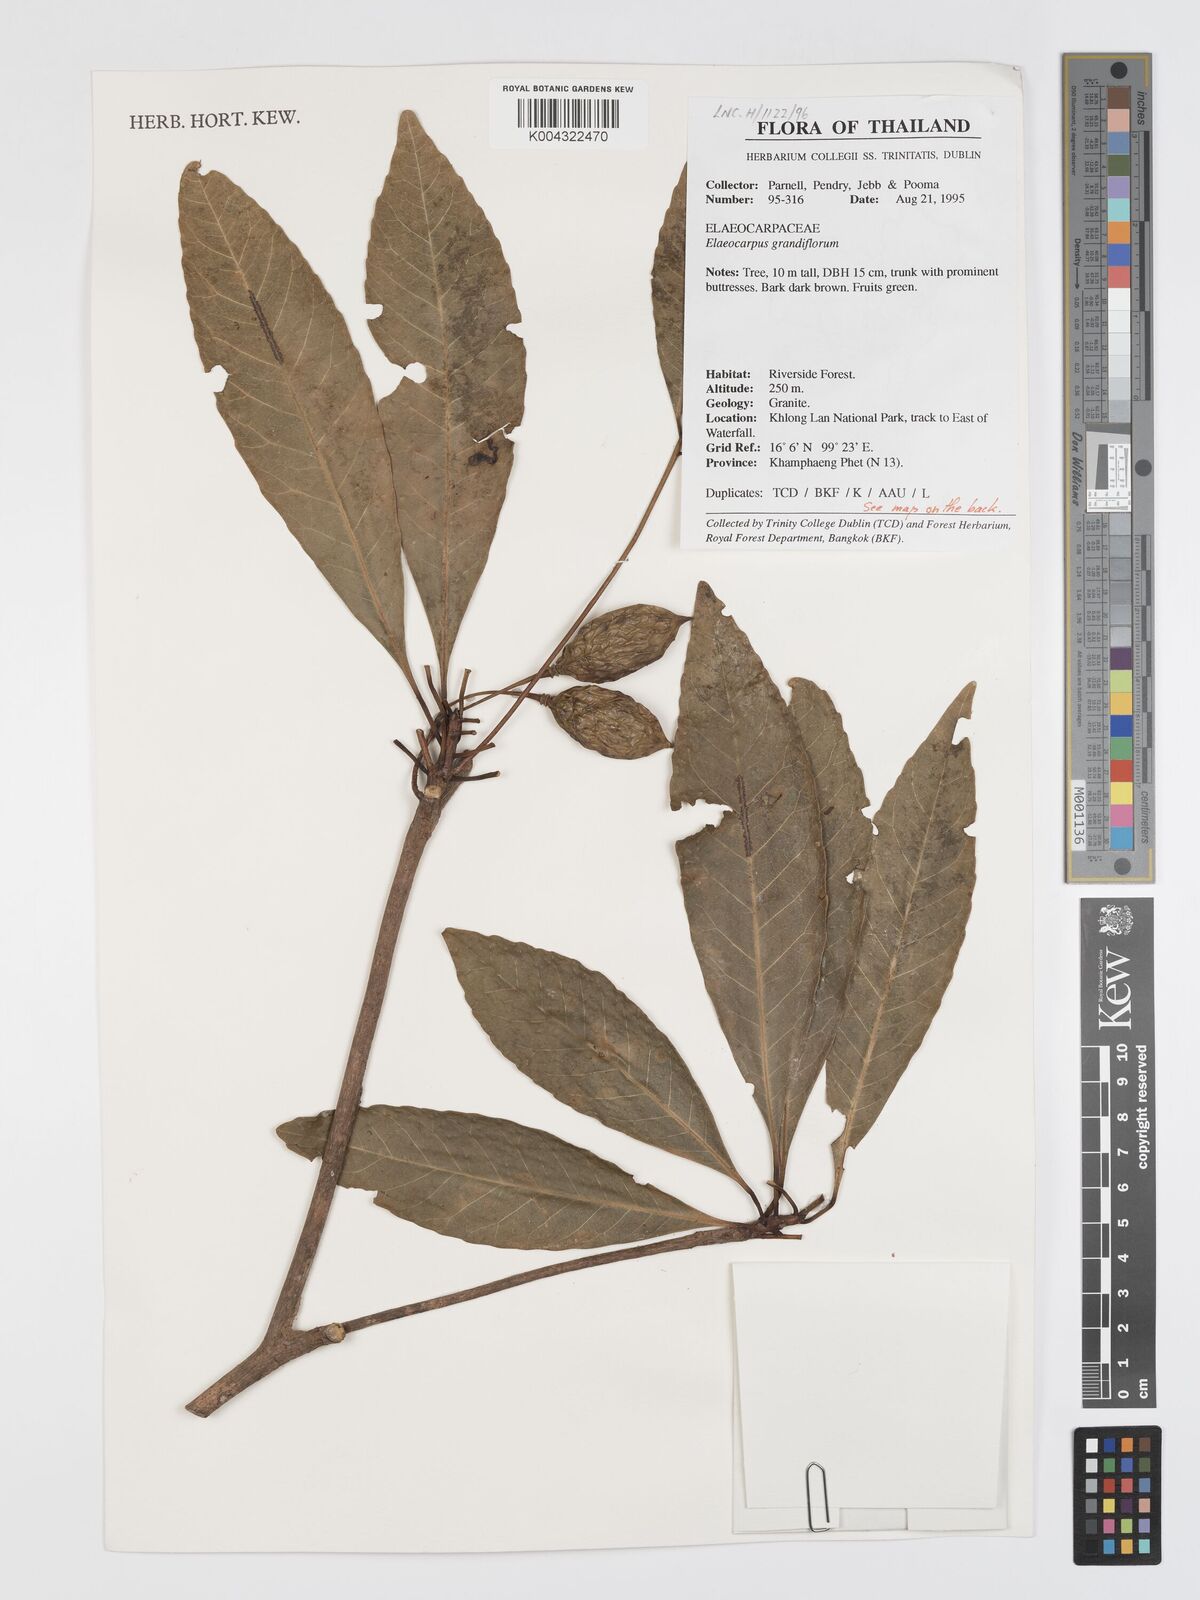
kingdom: Plantae
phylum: Tracheophyta
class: Magnoliopsida
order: Oxalidales
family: Elaeocarpaceae
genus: Elaeocarpus
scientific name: Elaeocarpus grandiflorus
